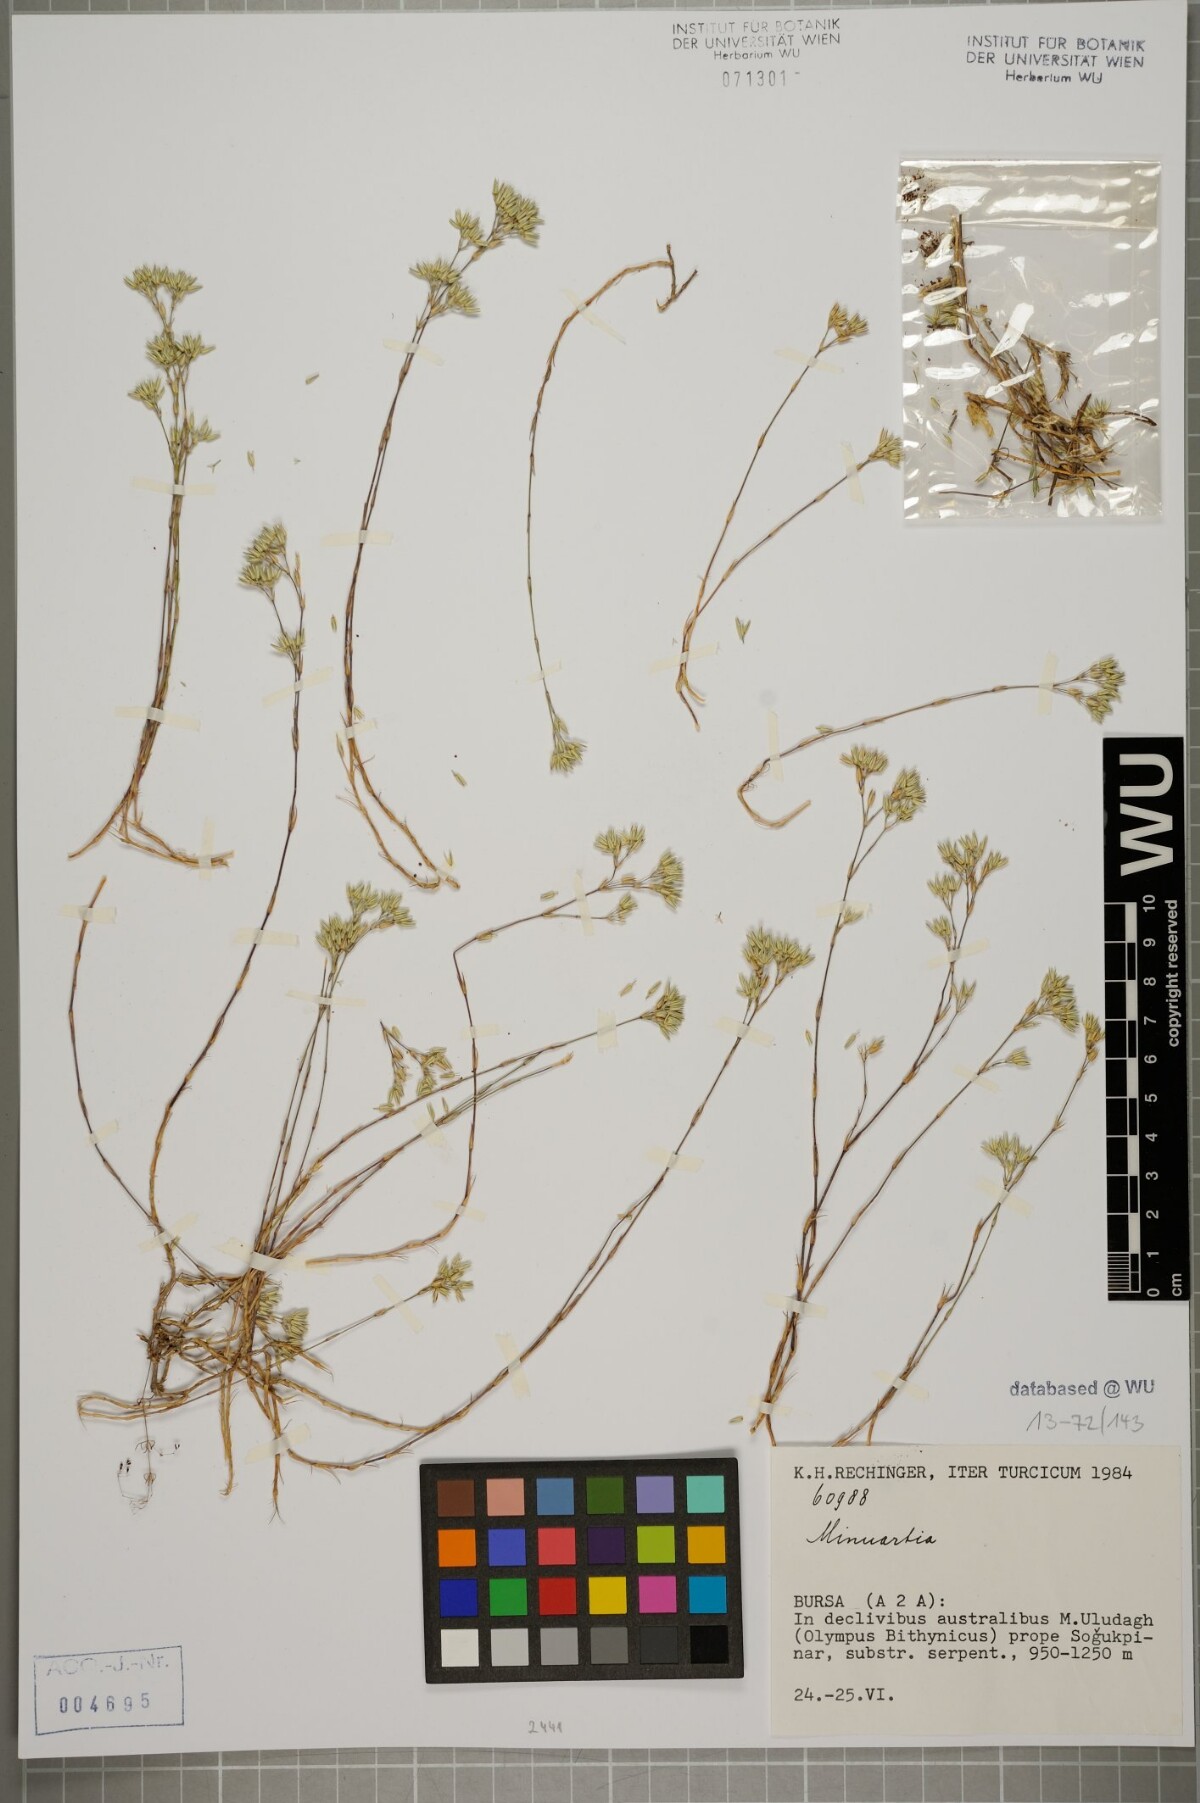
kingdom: Plantae
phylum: Tracheophyta
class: Magnoliopsida
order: Caryophyllales
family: Caryophyllaceae
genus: Minuartia
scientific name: Minuartia anatolica
